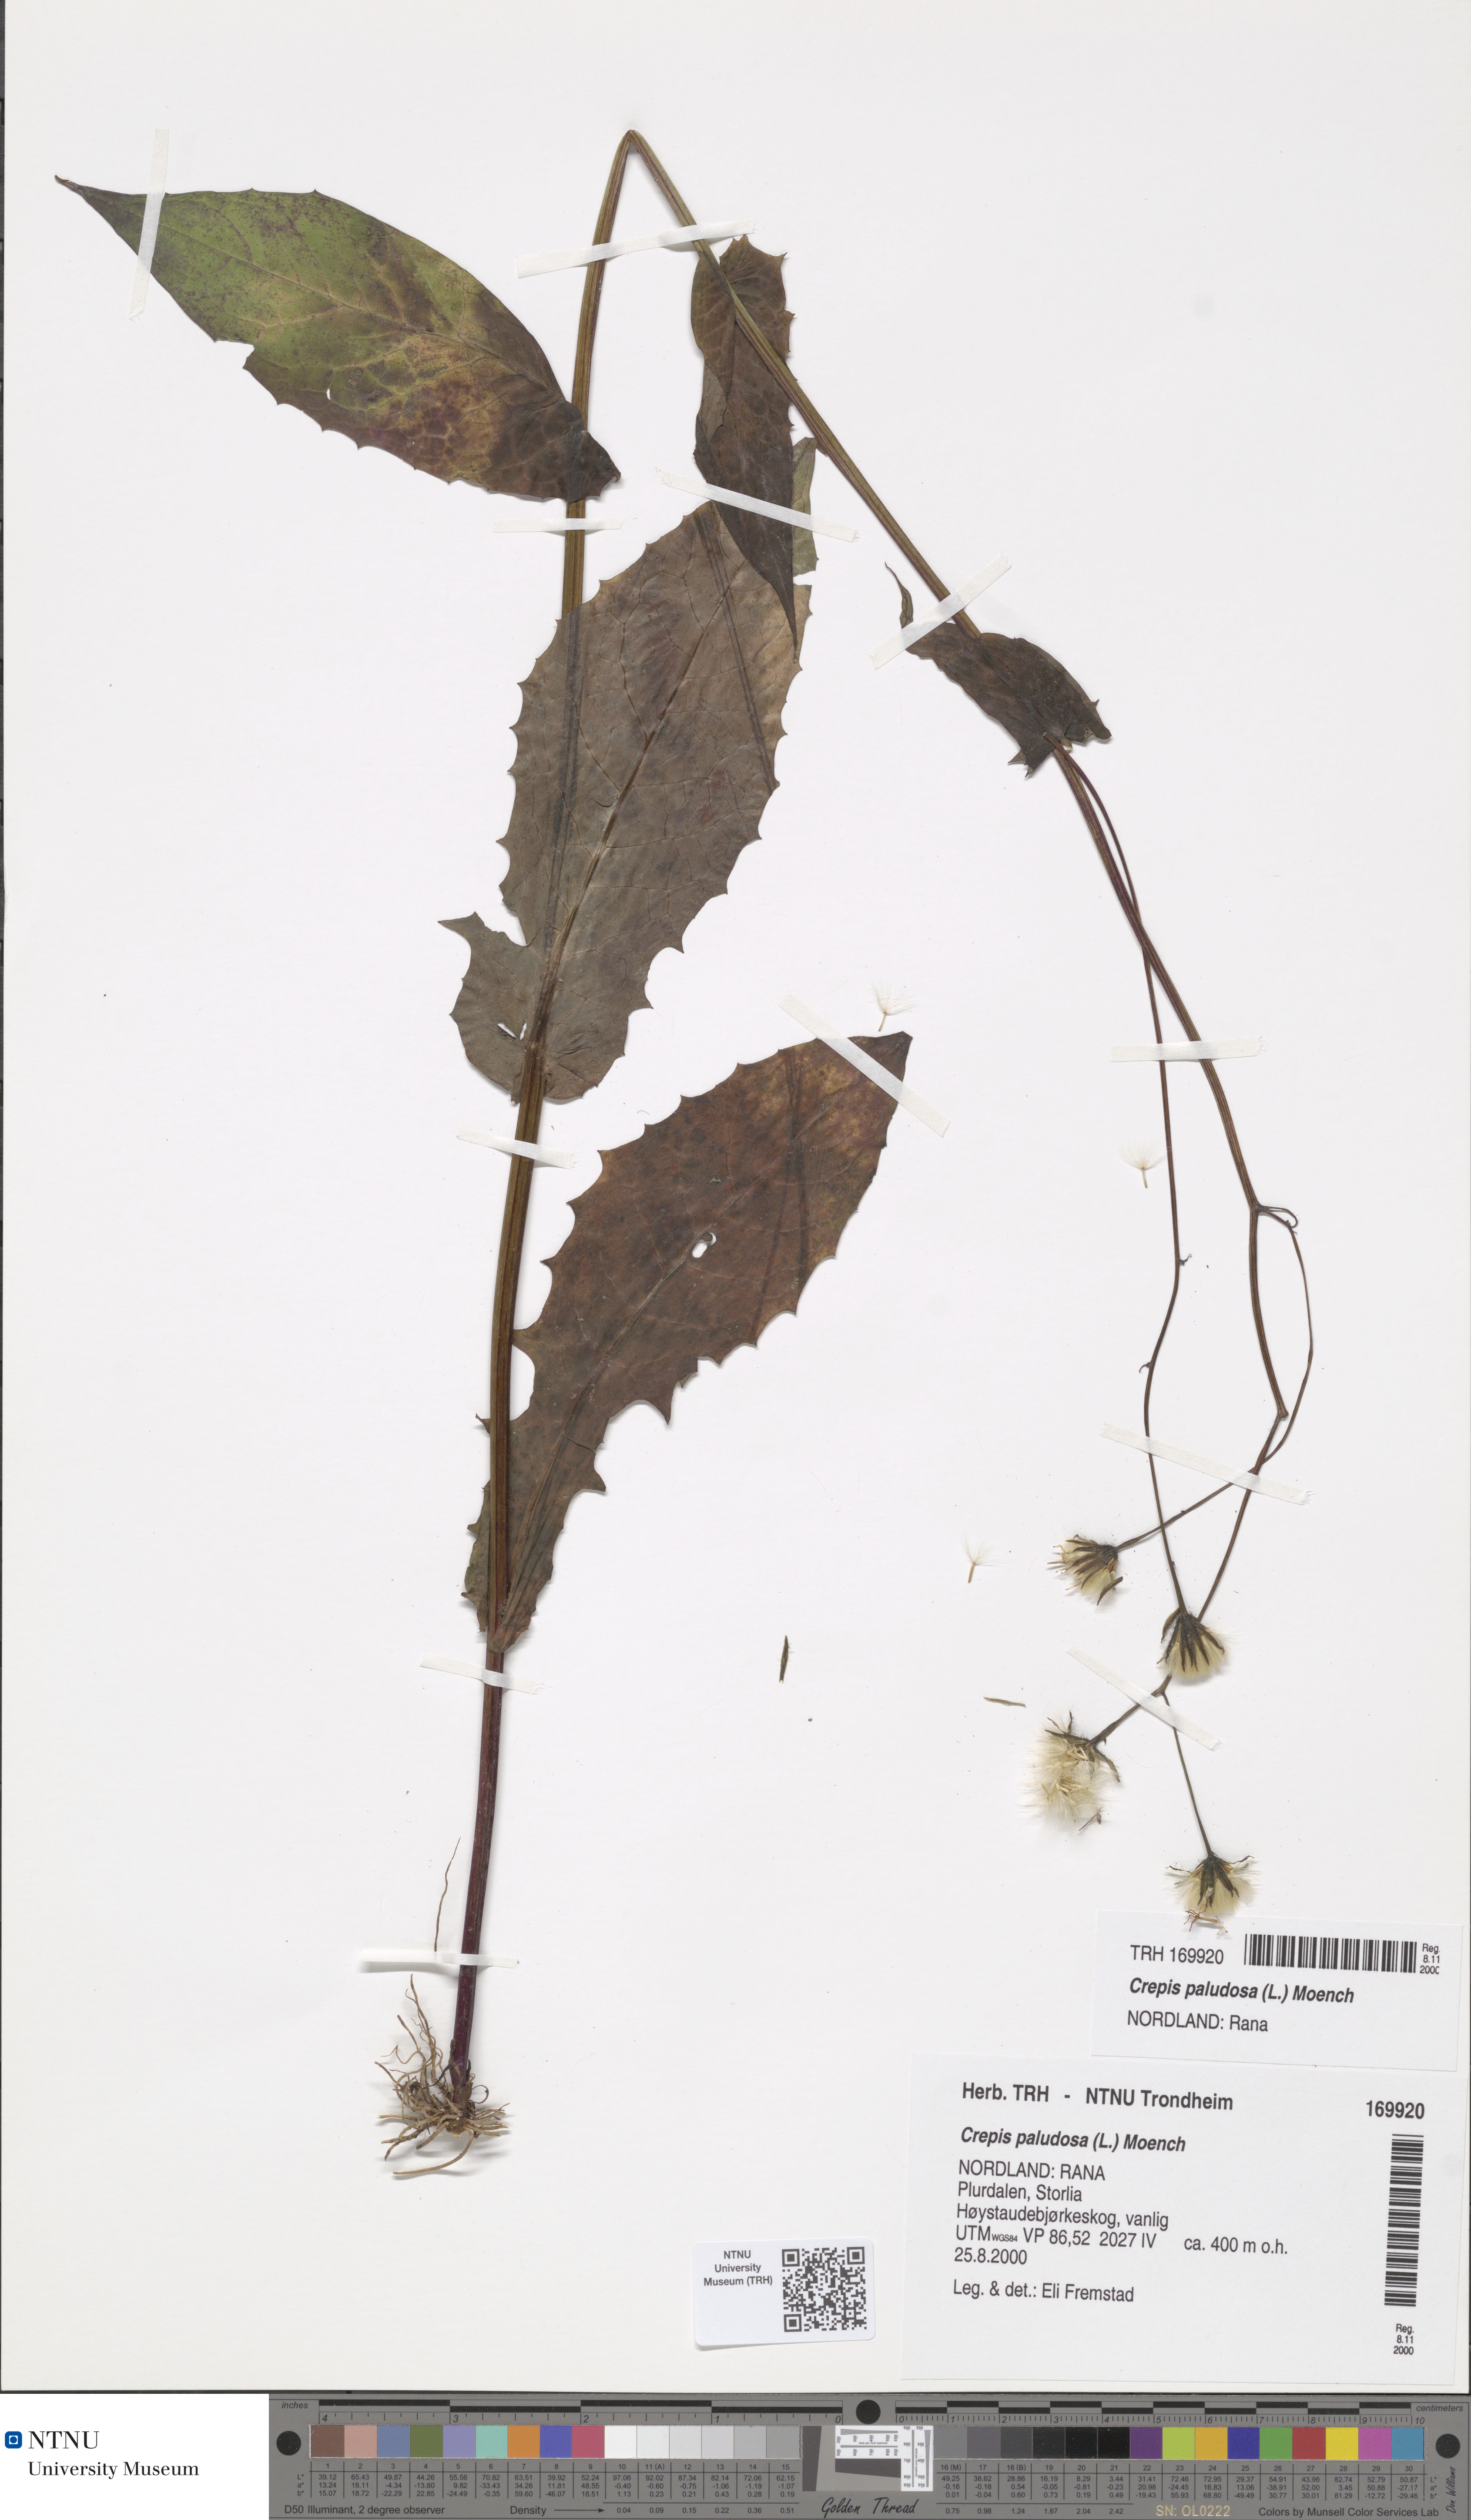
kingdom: Plantae
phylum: Tracheophyta
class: Magnoliopsida
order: Asterales
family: Asteraceae
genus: Crepis
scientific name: Crepis paludosa
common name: Marsh hawk's-beard
